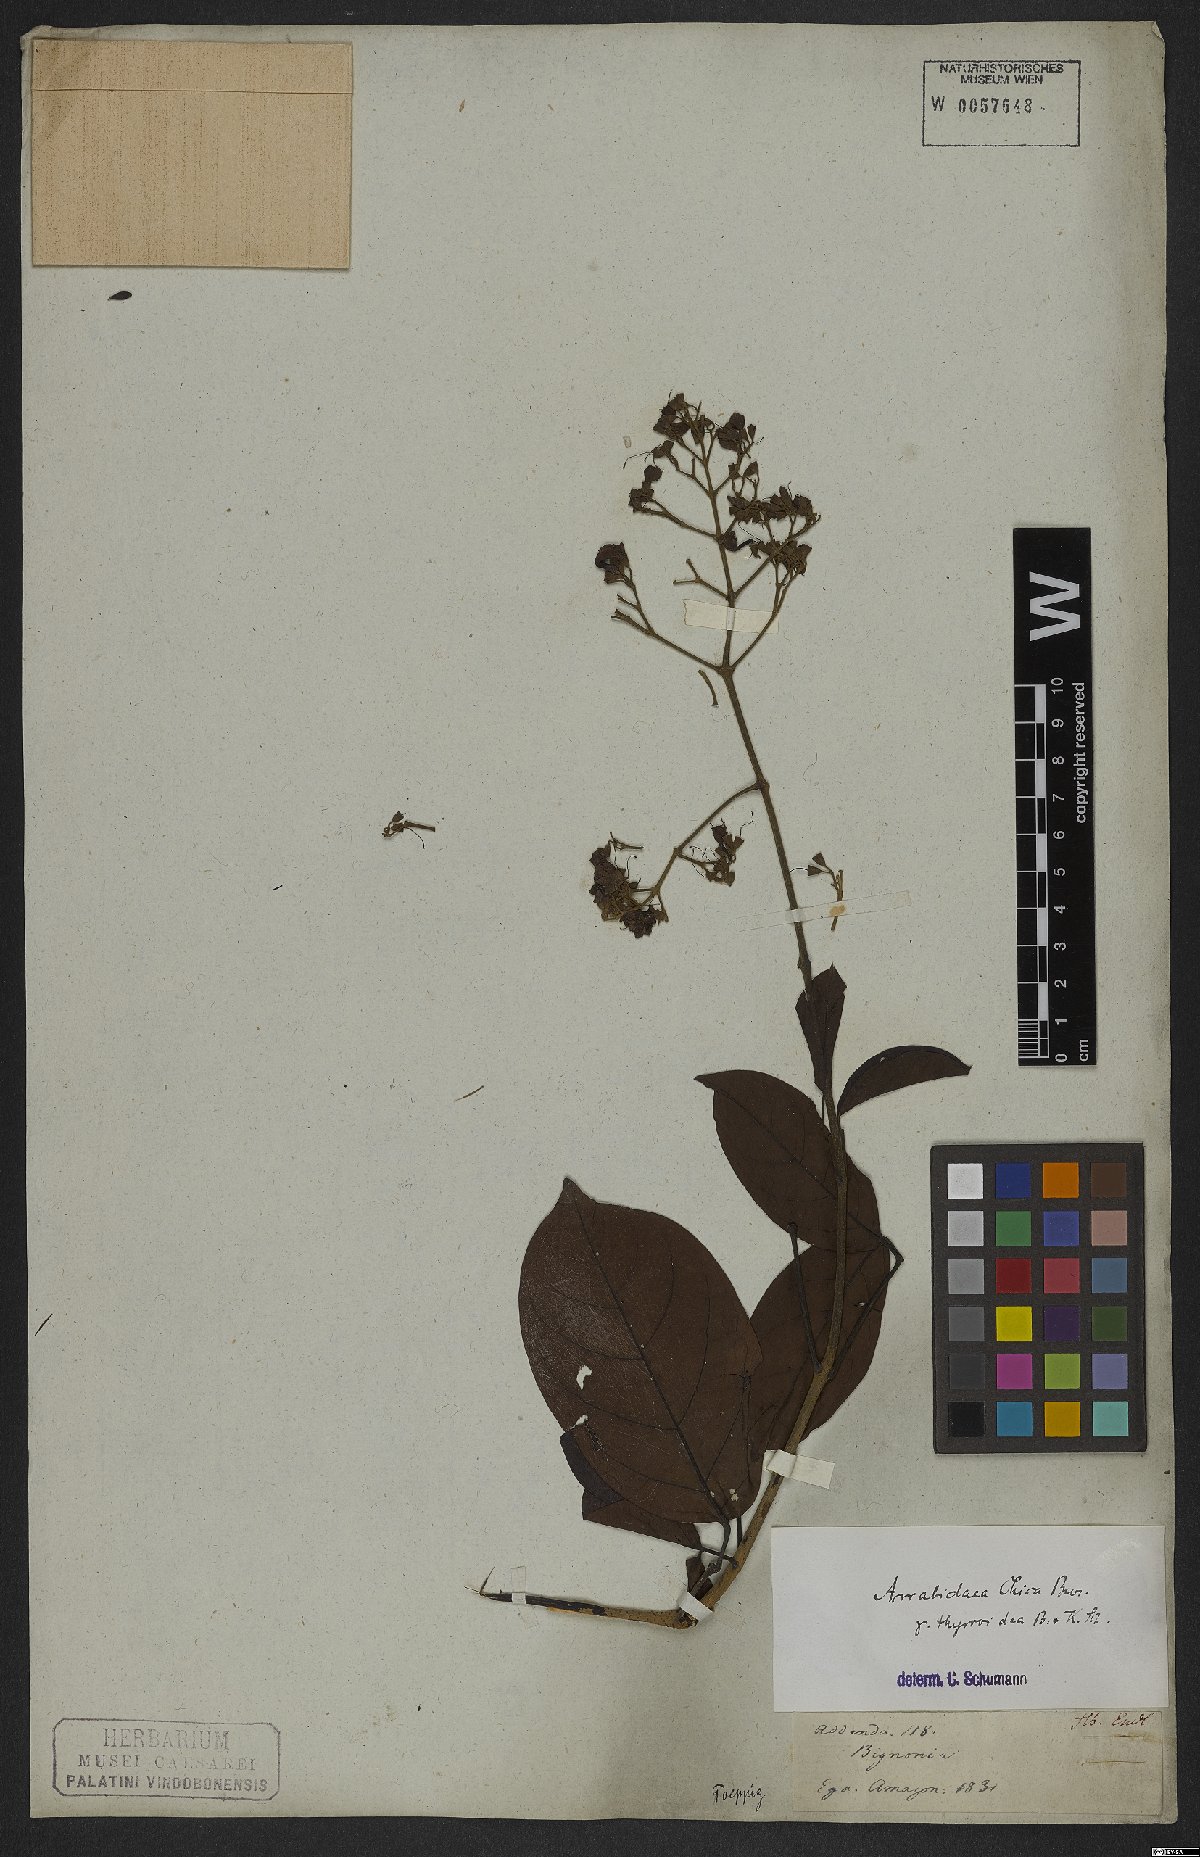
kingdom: Plantae
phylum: Tracheophyta
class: Magnoliopsida
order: Lamiales
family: Bignoniaceae
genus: Fridericia
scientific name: Fridericia chica
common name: Cricketvine
